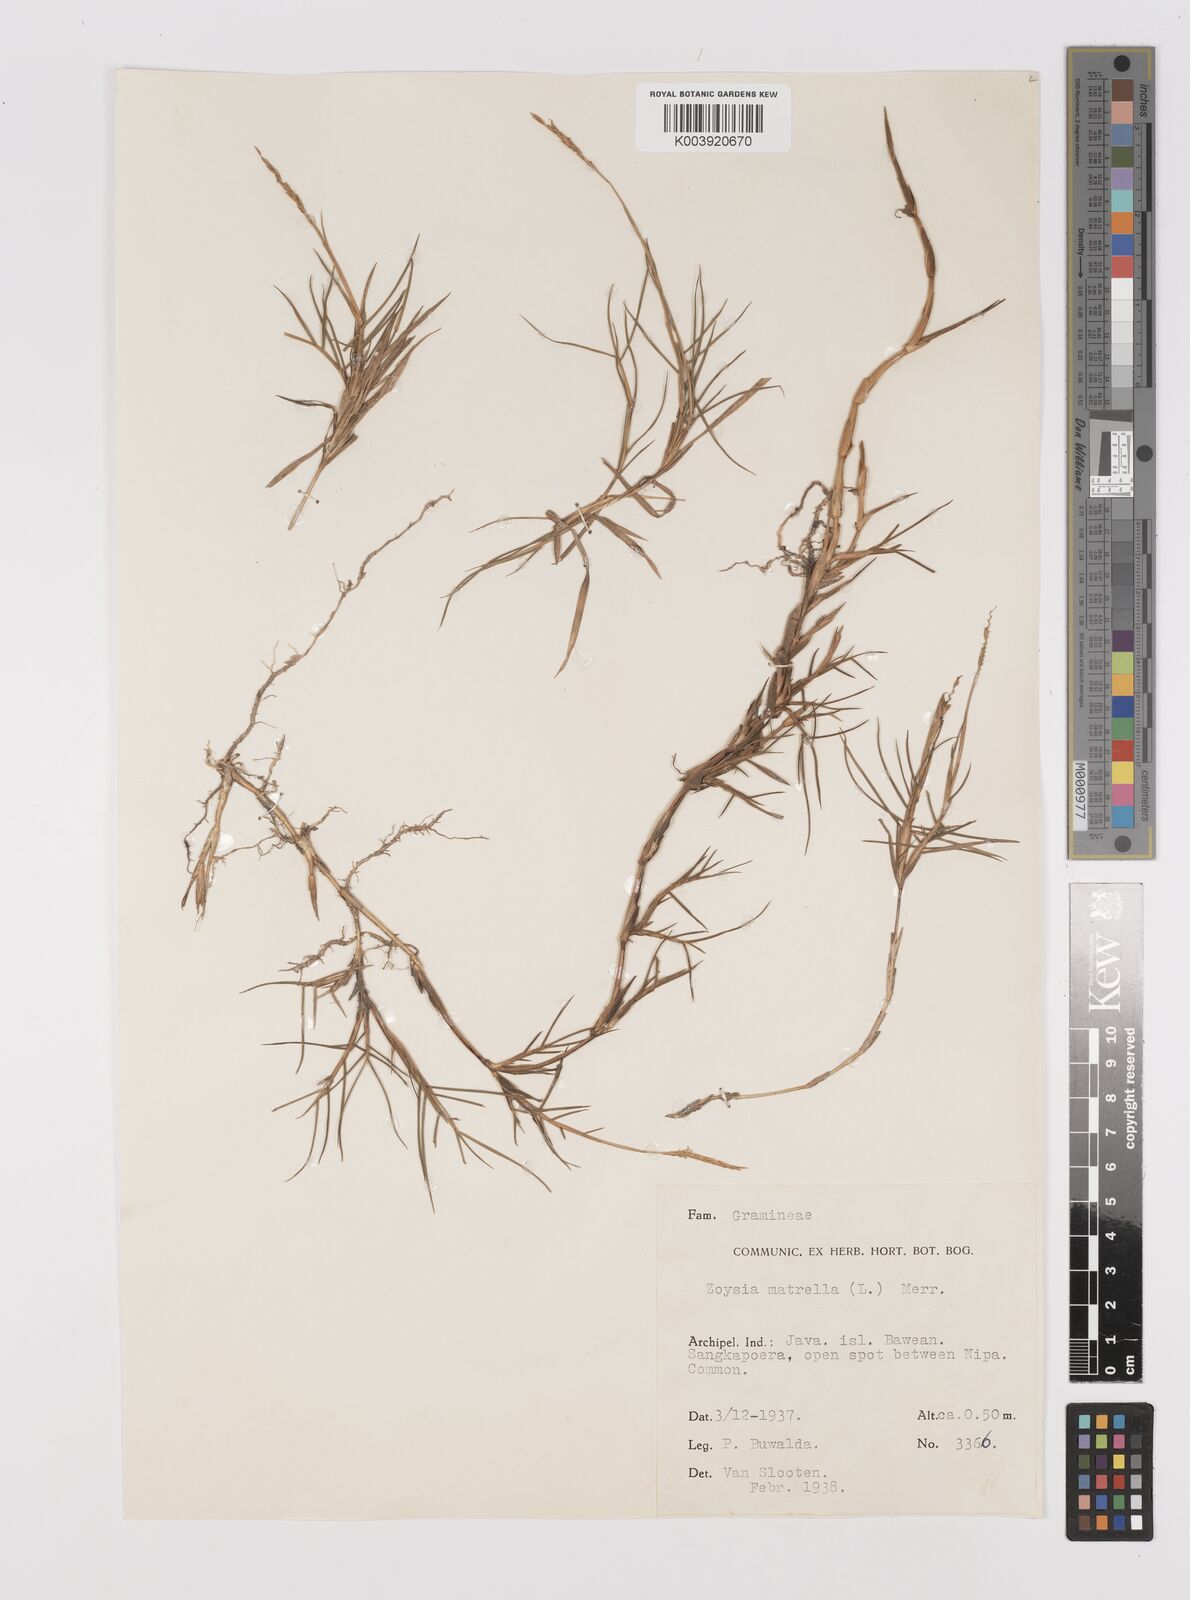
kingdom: Plantae
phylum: Tracheophyta
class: Liliopsida
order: Poales
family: Poaceae
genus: Zoysia
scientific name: Zoysia matrella
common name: Manila grass
